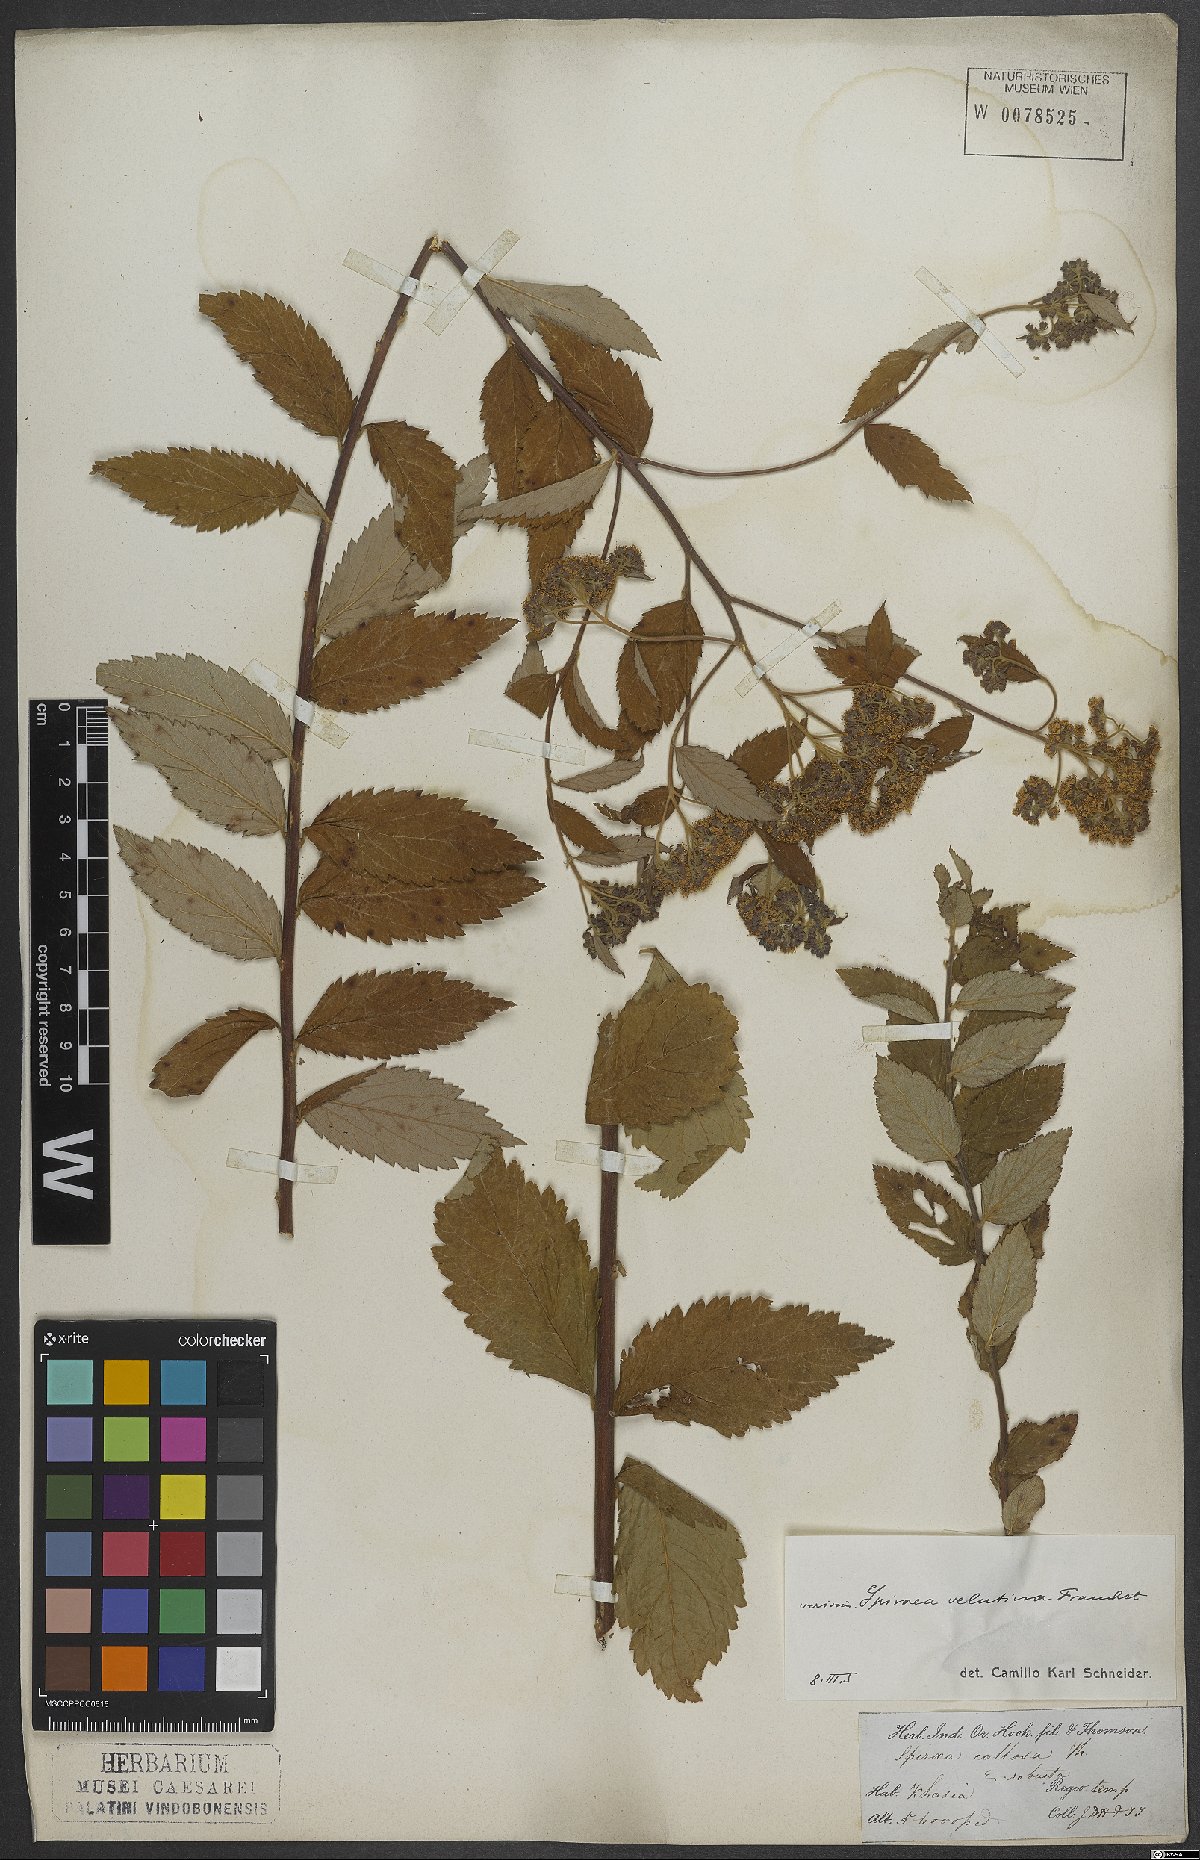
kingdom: Plantae
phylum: Tracheophyta
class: Magnoliopsida
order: Rosales
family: Rosaceae
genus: Spiraea
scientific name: Spiraea robusta
